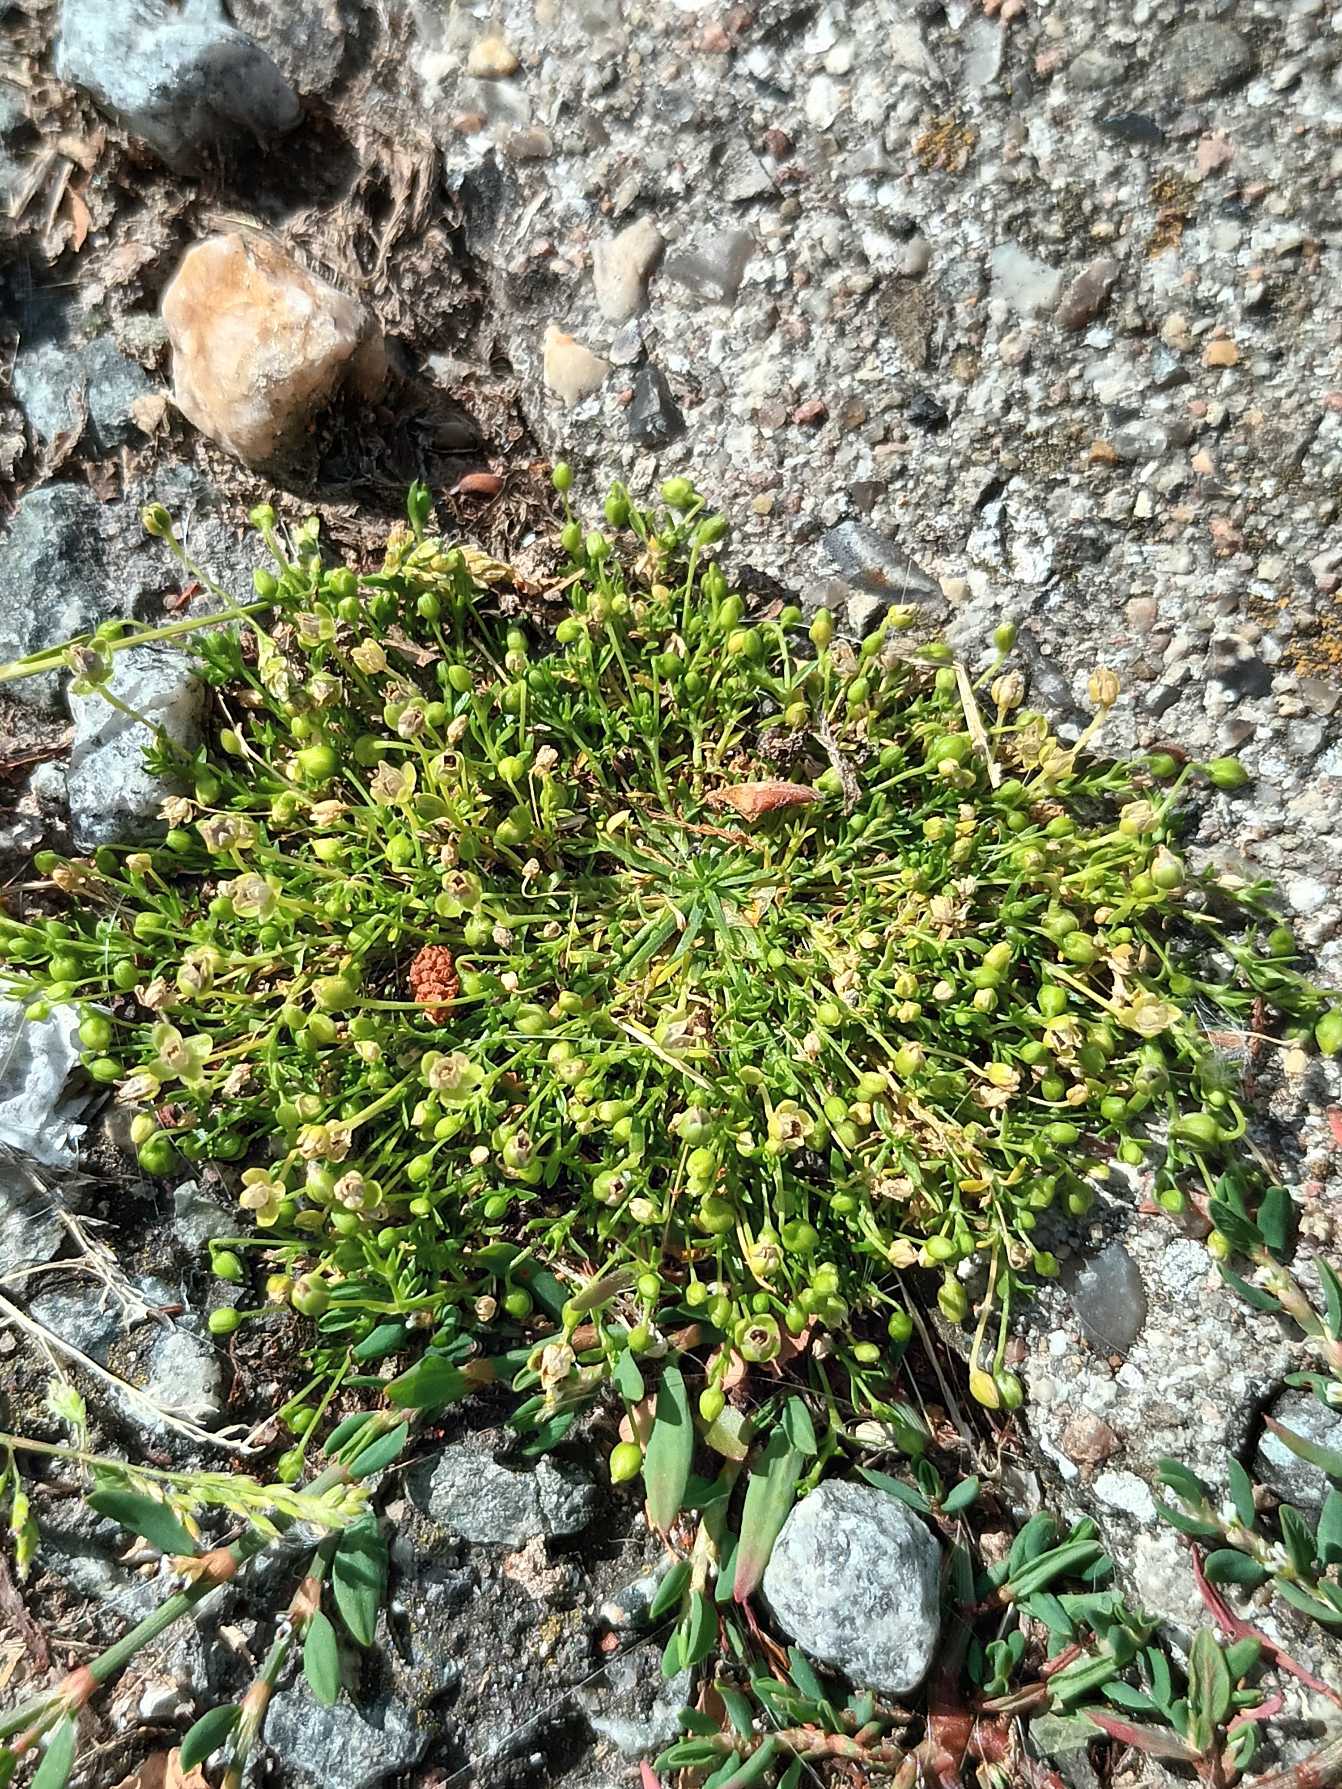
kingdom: Plantae
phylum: Tracheophyta
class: Magnoliopsida
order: Caryophyllales
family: Caryophyllaceae
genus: Sagina
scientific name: Sagina procumbens
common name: Almindelig firling
